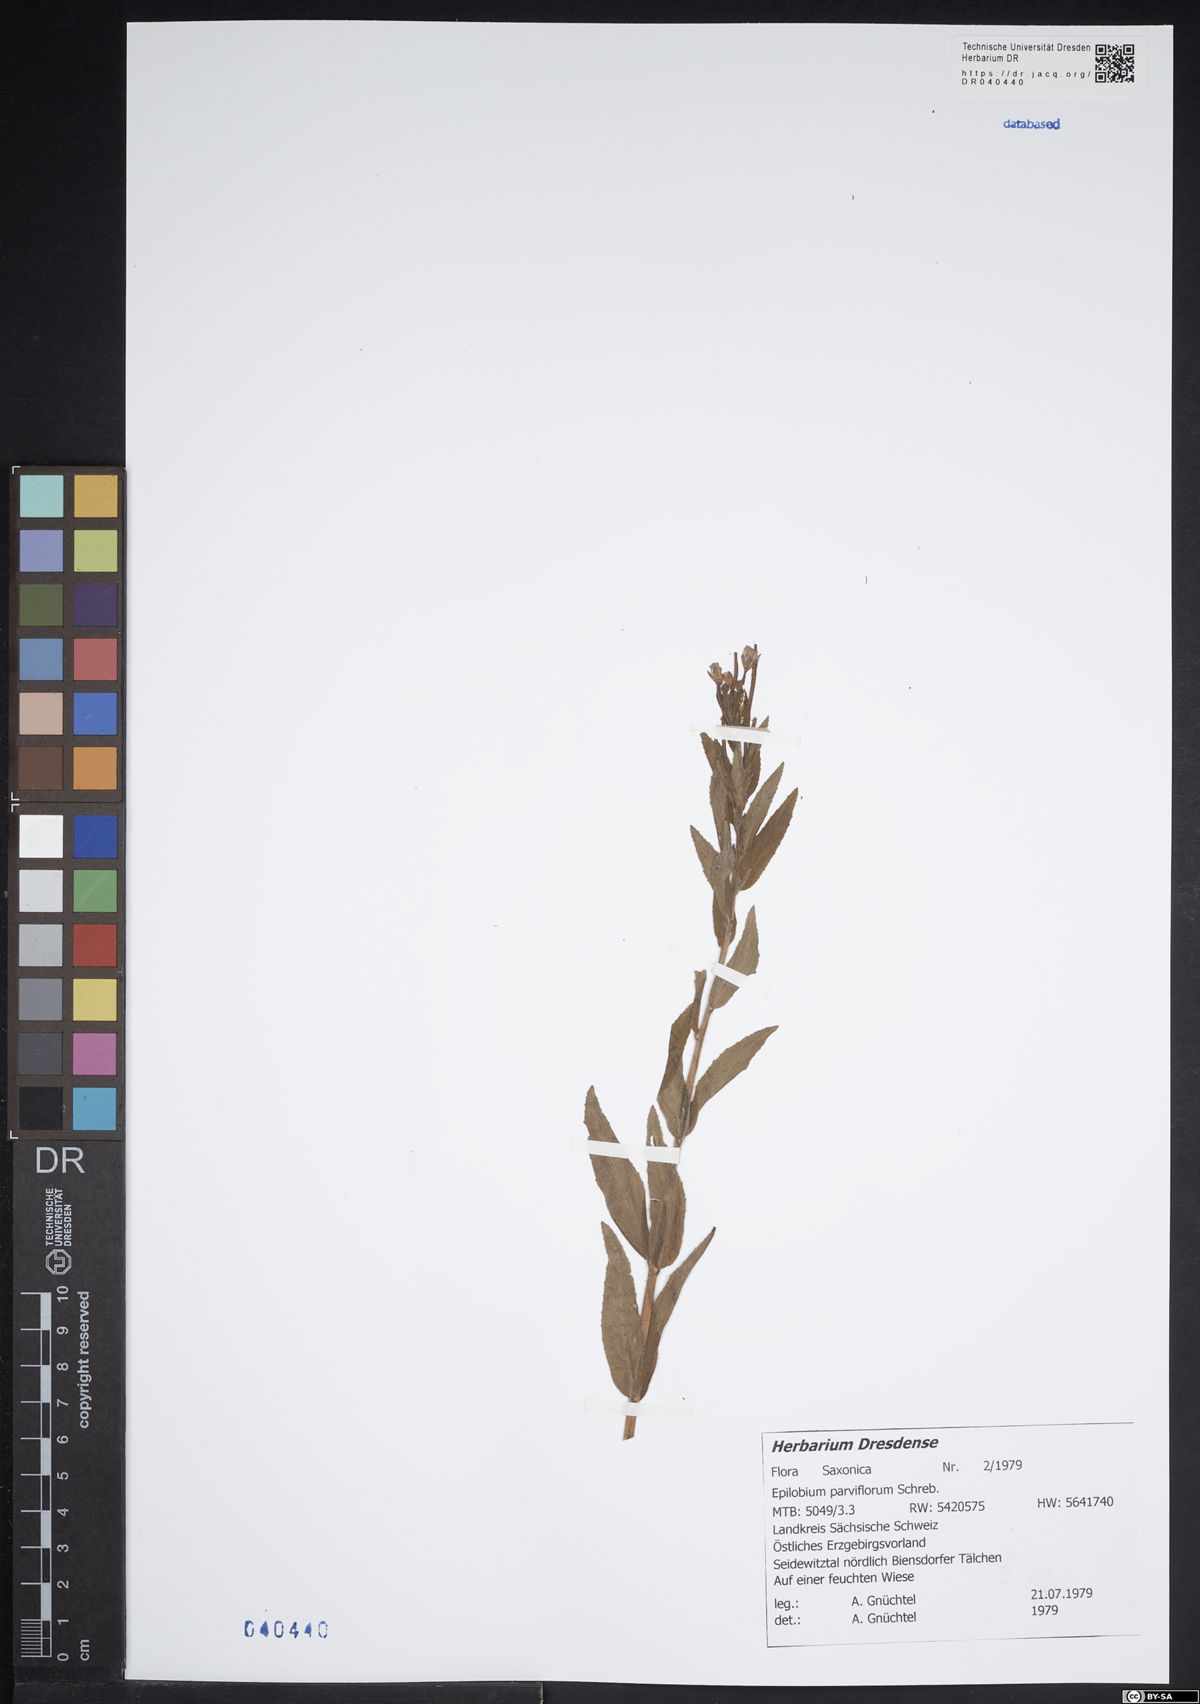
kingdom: Plantae
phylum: Tracheophyta
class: Magnoliopsida
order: Myrtales
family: Onagraceae
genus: Epilobium
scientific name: Epilobium parviflorum
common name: Hoary willowherb
